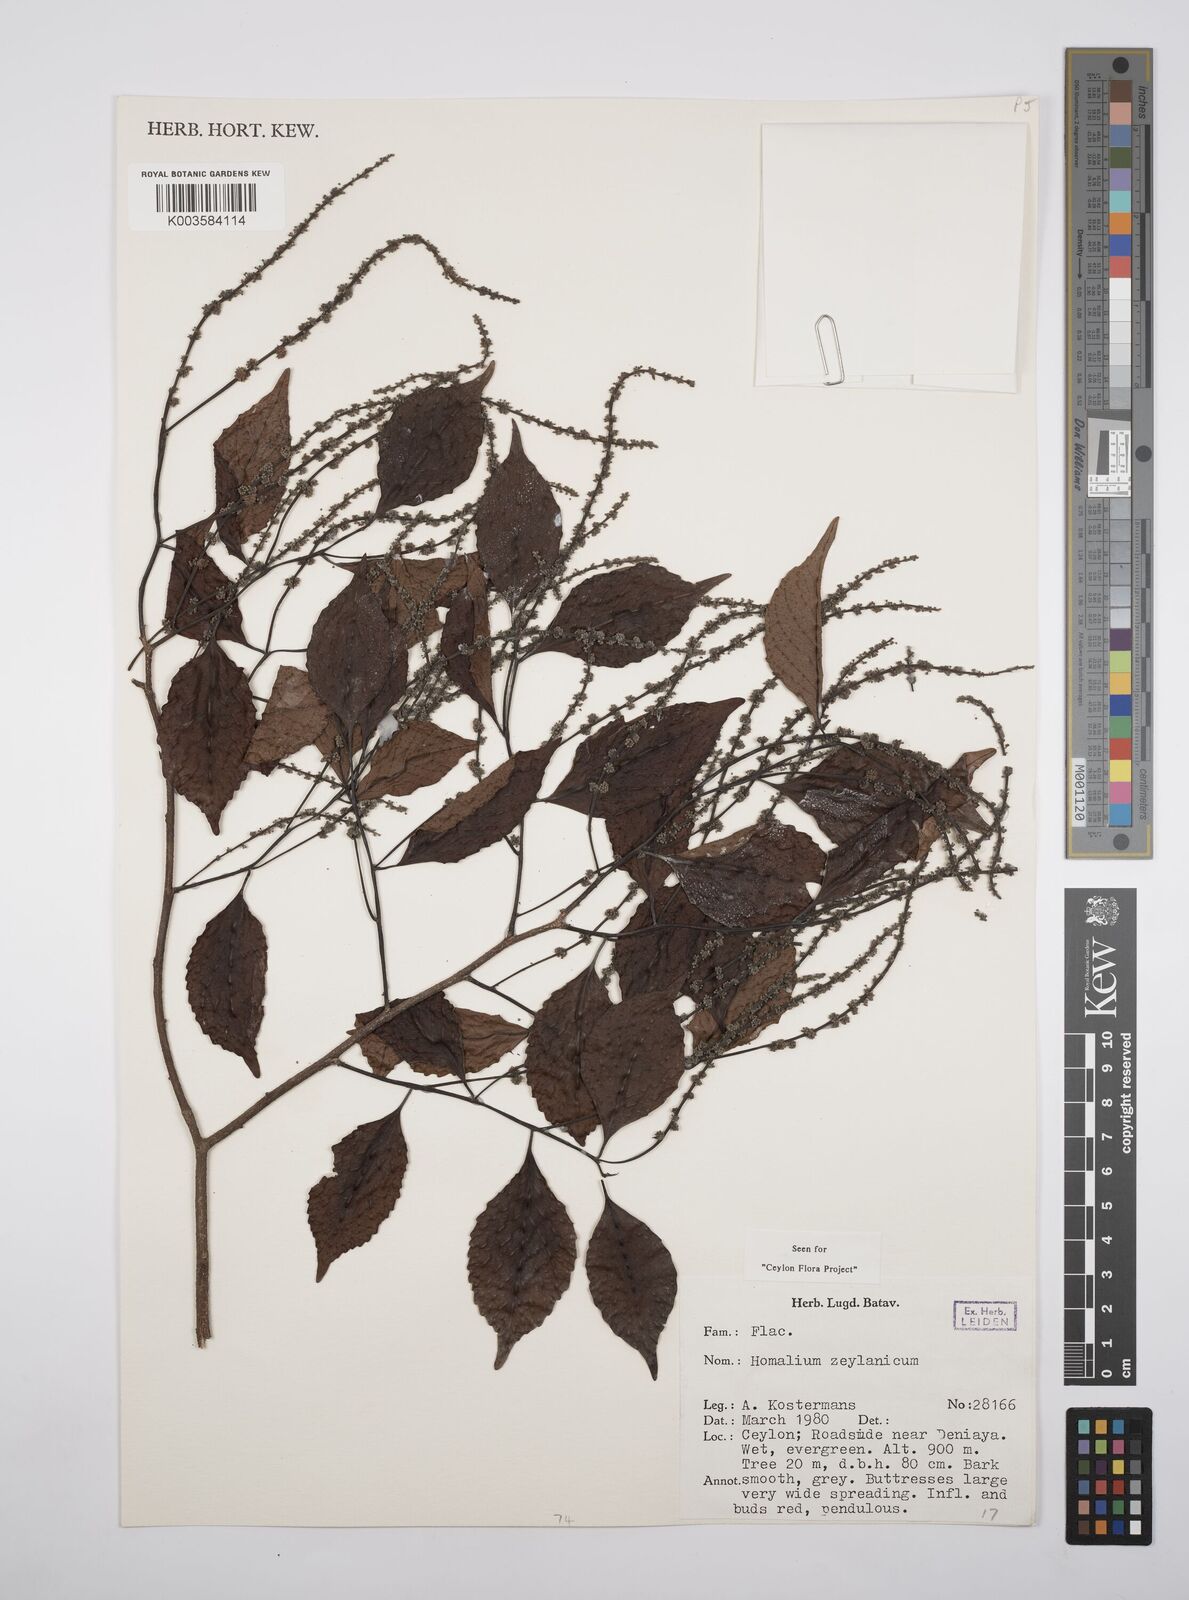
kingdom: Plantae
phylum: Tracheophyta
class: Magnoliopsida
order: Malpighiales
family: Salicaceae
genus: Homalium
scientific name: Homalium ceylanicum
